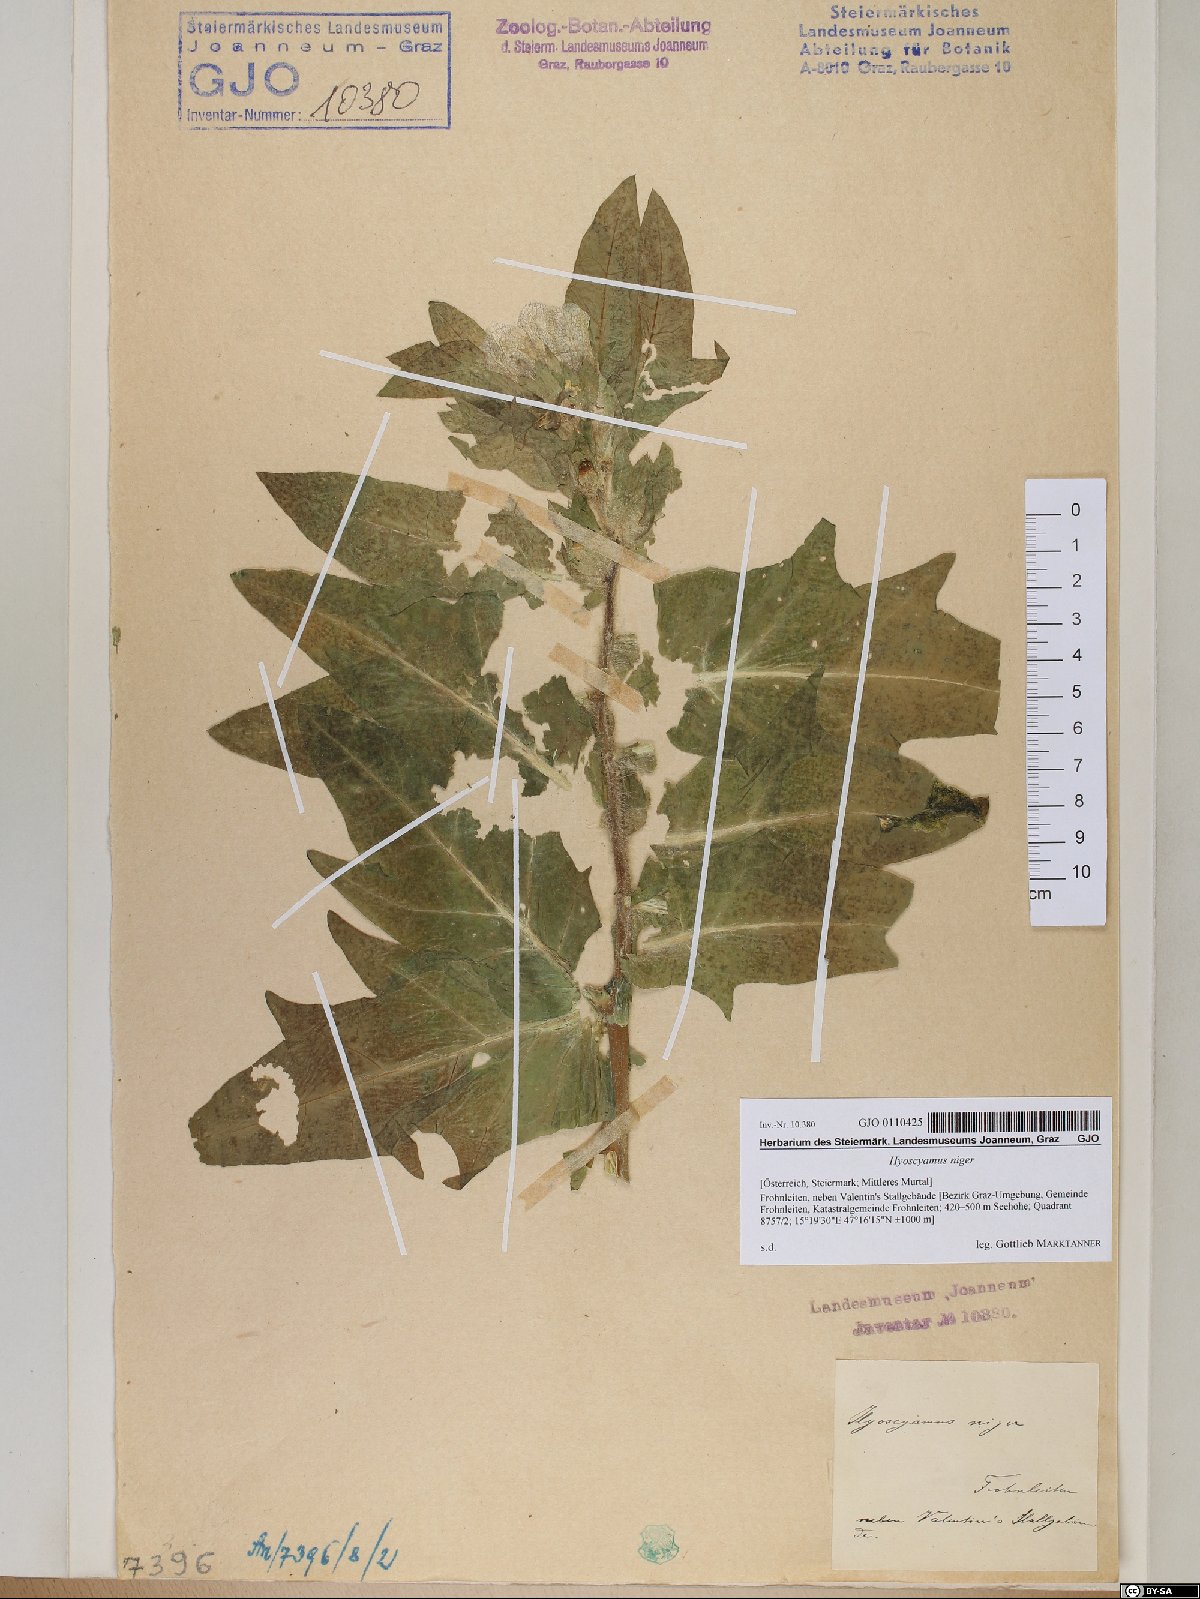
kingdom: Plantae
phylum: Tracheophyta
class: Magnoliopsida
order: Solanales
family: Solanaceae
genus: Hyoscyamus
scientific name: Hyoscyamus niger
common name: Henbane
